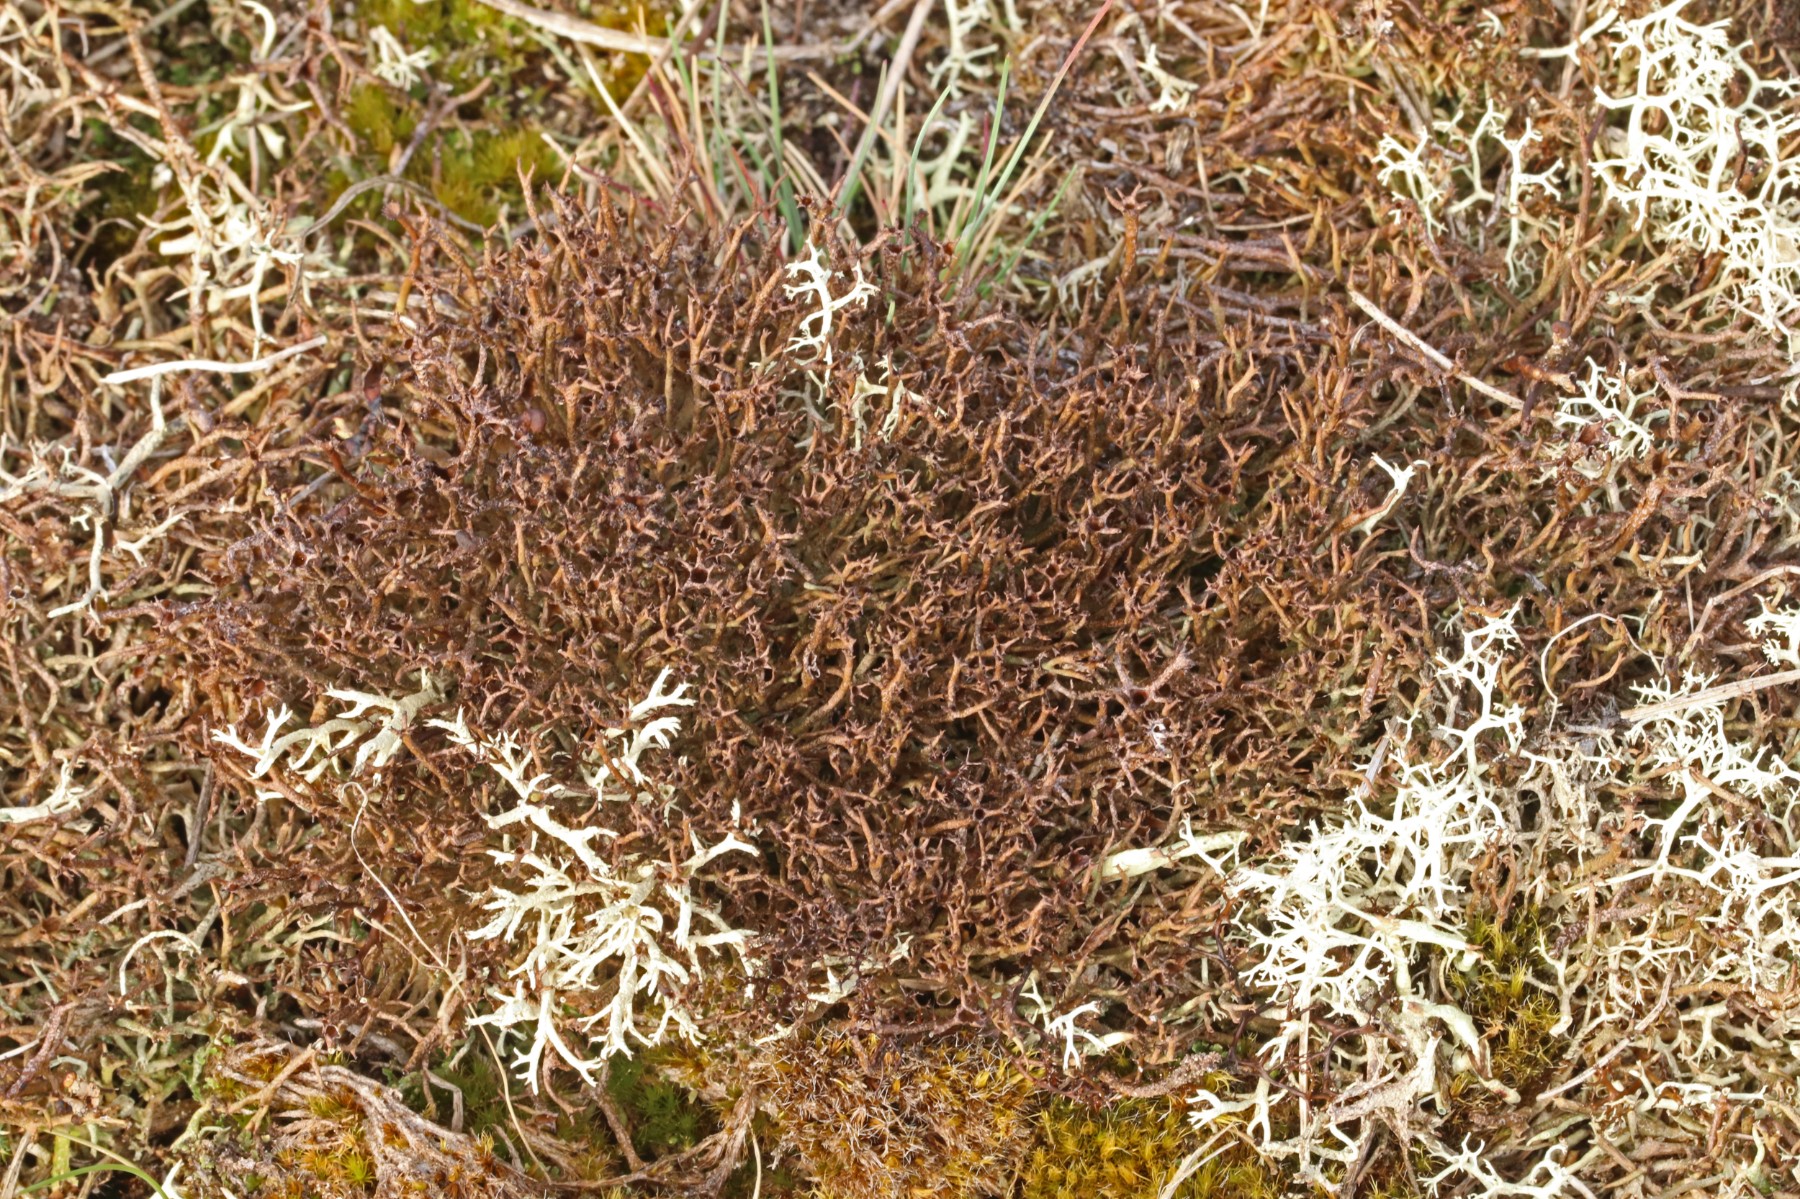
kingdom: Fungi
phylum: Ascomycota
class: Lecanoromycetes
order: Lecanorales
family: Cladoniaceae
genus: Cladonia
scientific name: Cladonia crispata
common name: takket bægerlav
